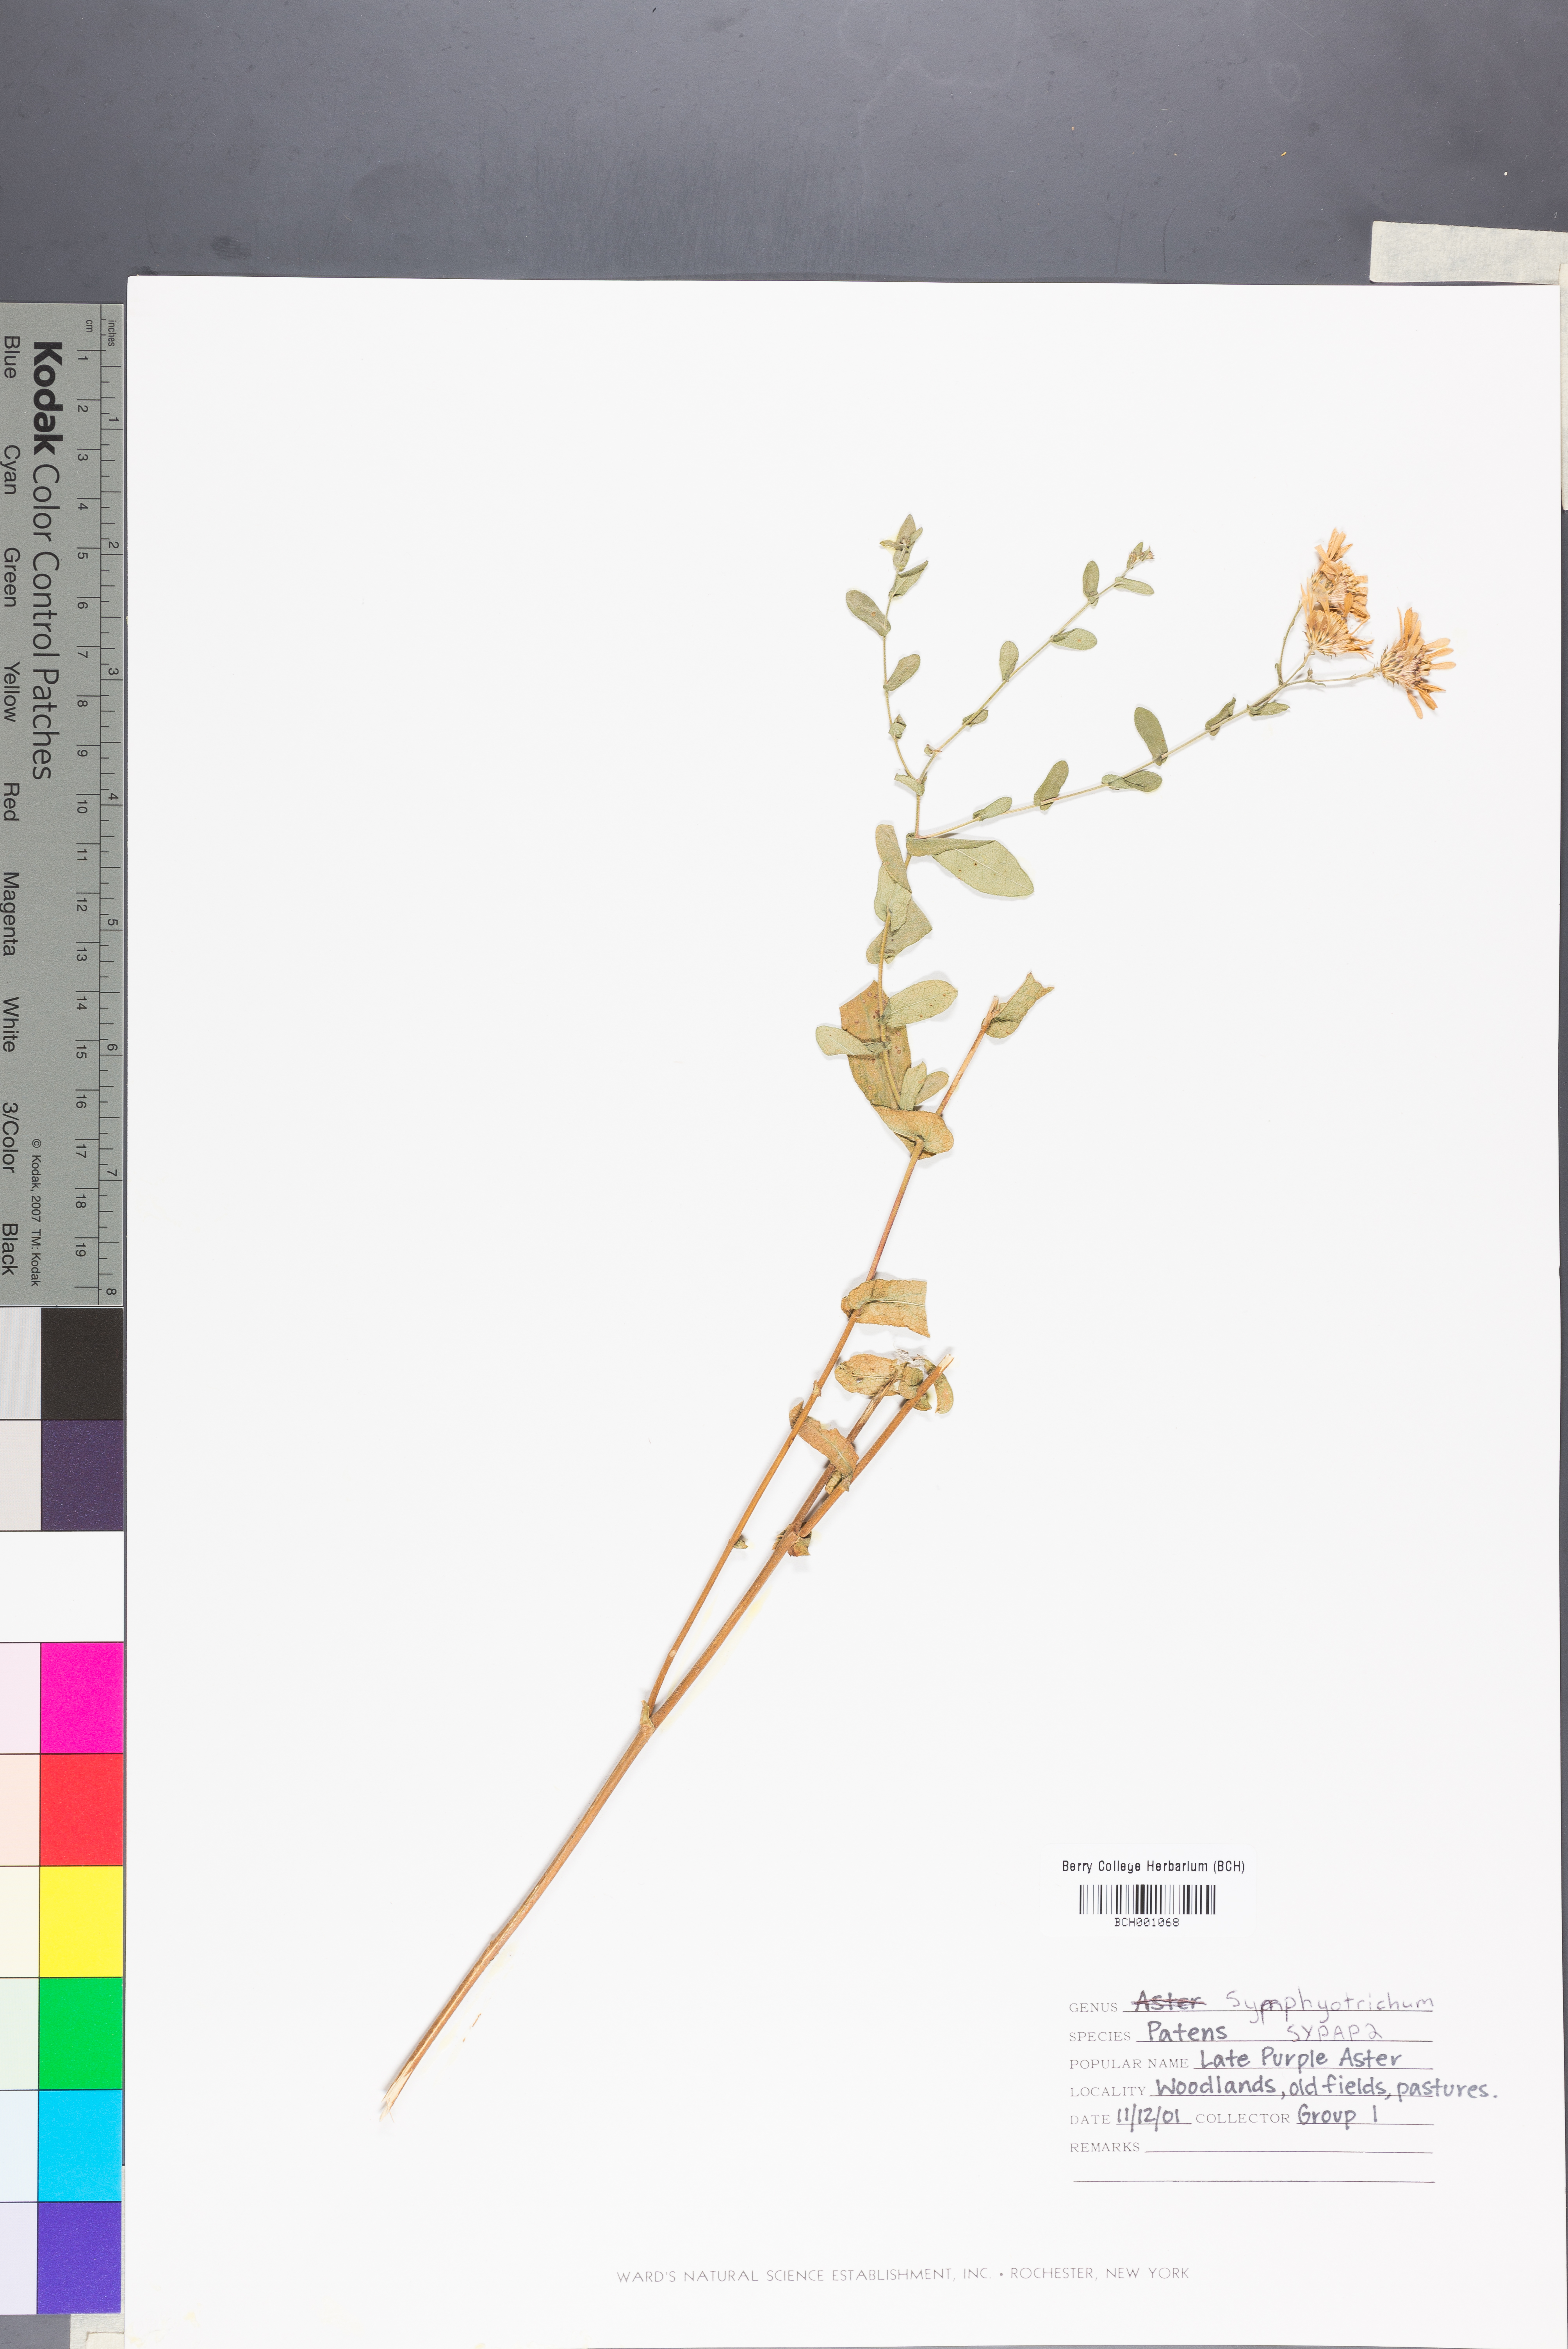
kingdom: Plantae
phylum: Tracheophyta
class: Magnoliopsida
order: Asterales
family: Asteraceae
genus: Symphyotrichum
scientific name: Symphyotrichum patens
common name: Late purple aster
